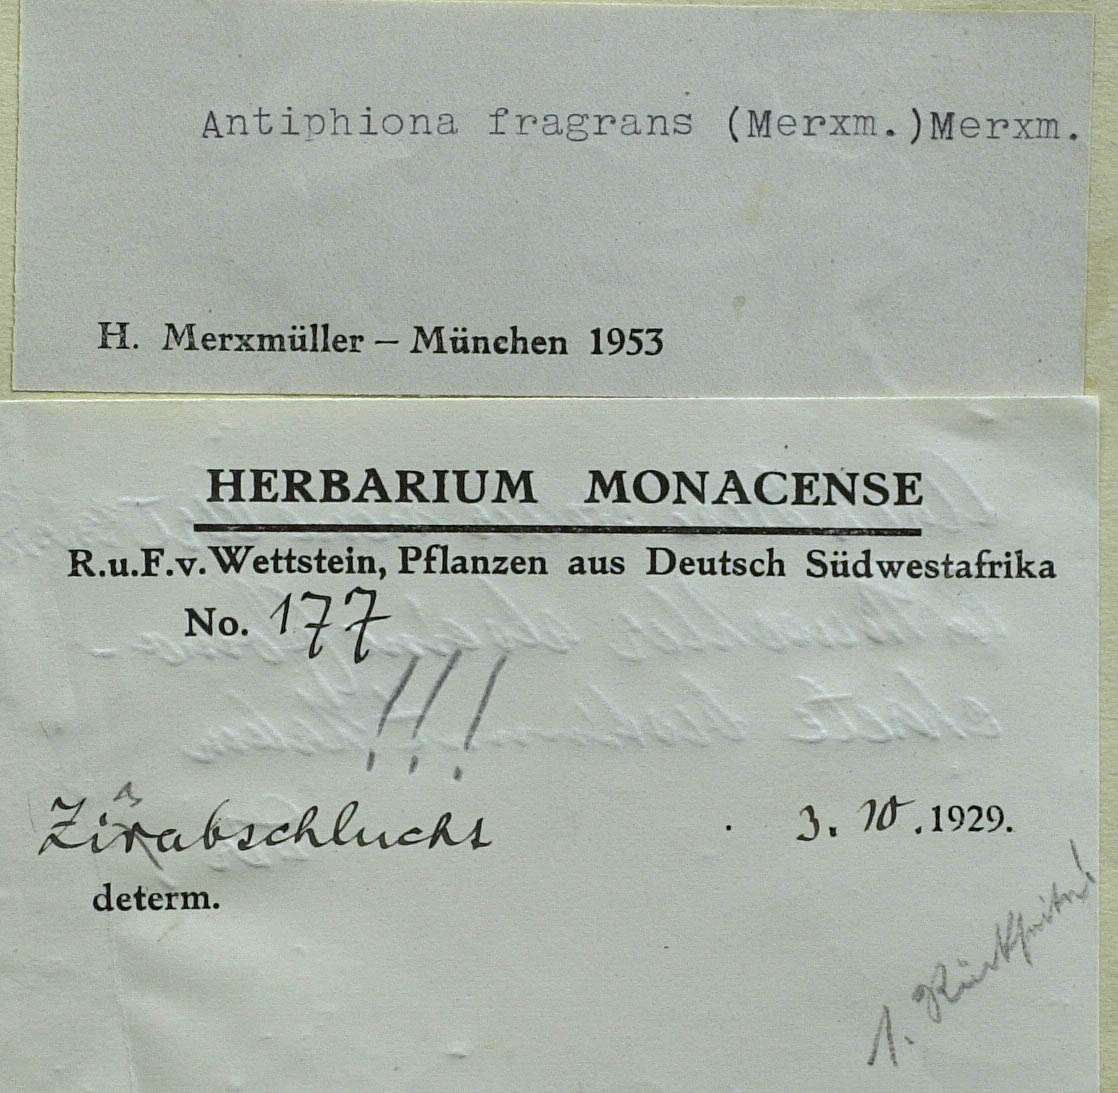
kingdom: Plantae
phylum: Tracheophyta
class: Magnoliopsida
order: Asterales
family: Asteraceae
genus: Antiphiona
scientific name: Antiphiona fragrans
